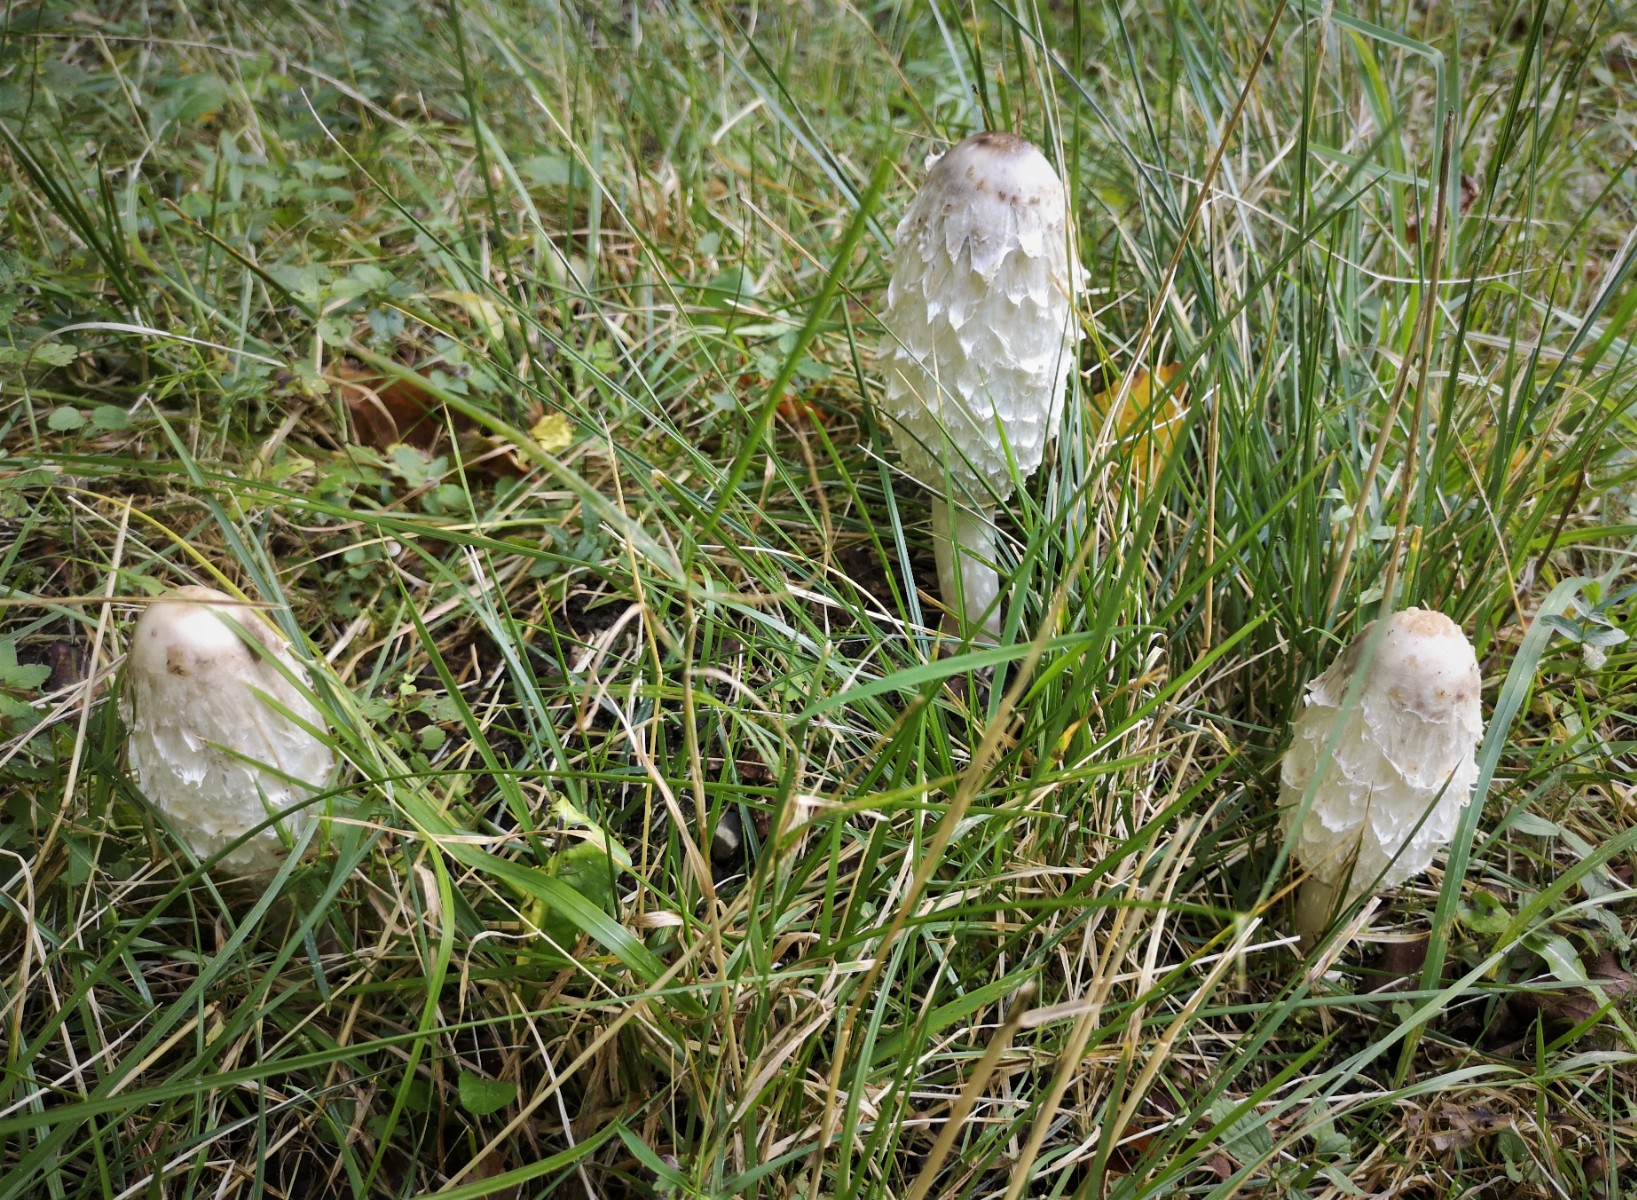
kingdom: Fungi
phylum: Basidiomycota
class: Agaricomycetes
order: Agaricales
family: Agaricaceae
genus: Coprinus
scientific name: Coprinus comatus
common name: stor parykhat
